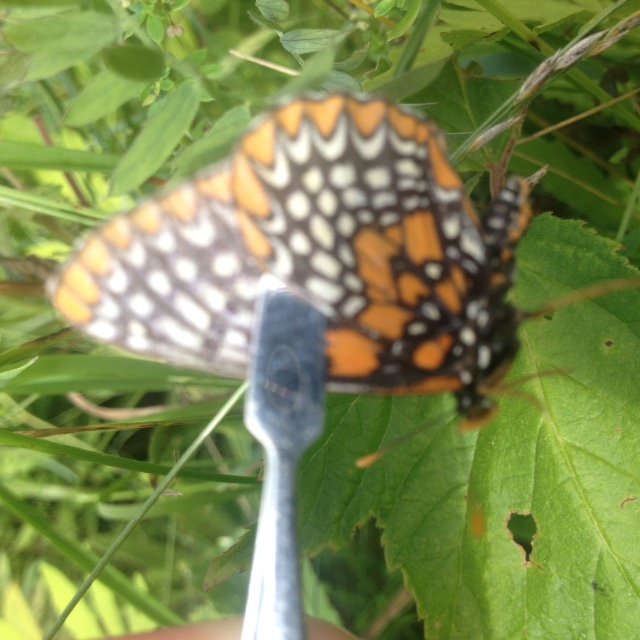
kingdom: Animalia
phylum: Arthropoda
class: Insecta
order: Lepidoptera
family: Nymphalidae
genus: Euphydryas
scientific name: Euphydryas phaeton
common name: Baltimore Checkerspot
